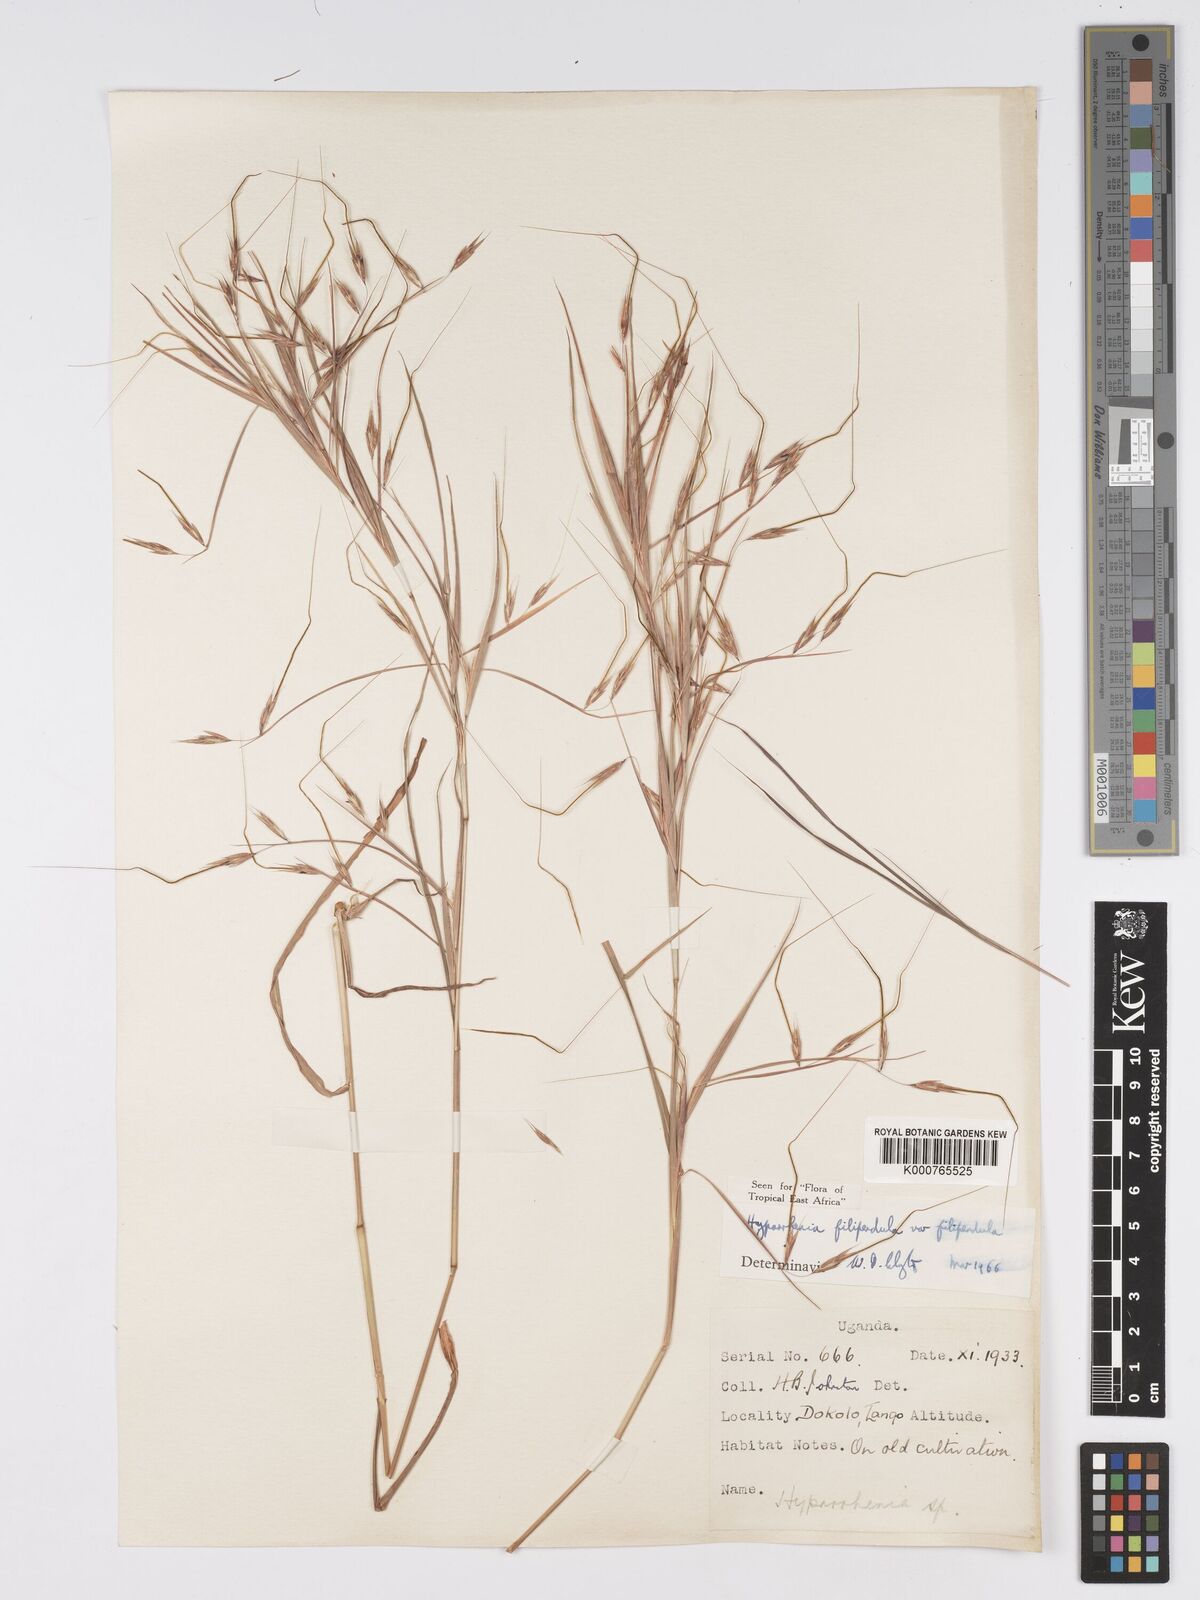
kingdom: Plantae
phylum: Tracheophyta
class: Liliopsida
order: Poales
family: Poaceae
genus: Hyparrhenia
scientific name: Hyparrhenia filipendula
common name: Tambookie grass
